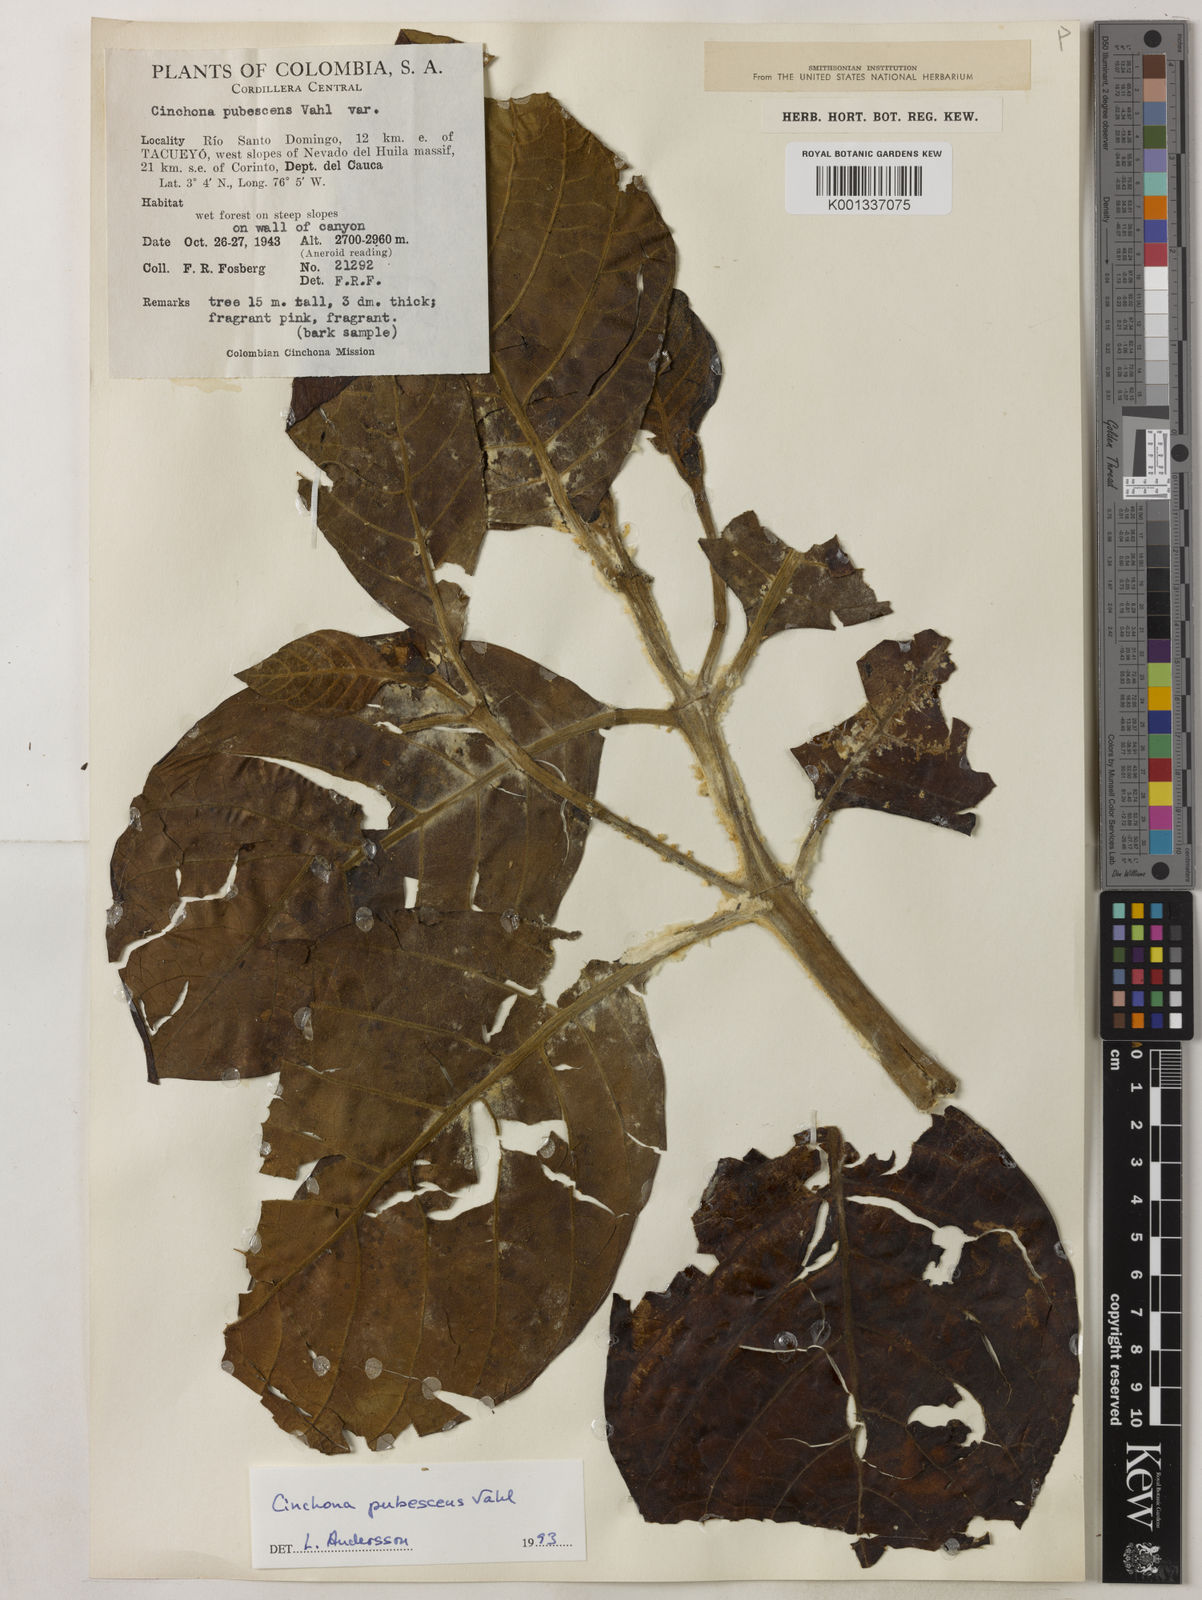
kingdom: Plantae
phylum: Tracheophyta
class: Magnoliopsida
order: Gentianales
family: Rubiaceae
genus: Cinchona
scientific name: Cinchona pubescens
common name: Quinine
